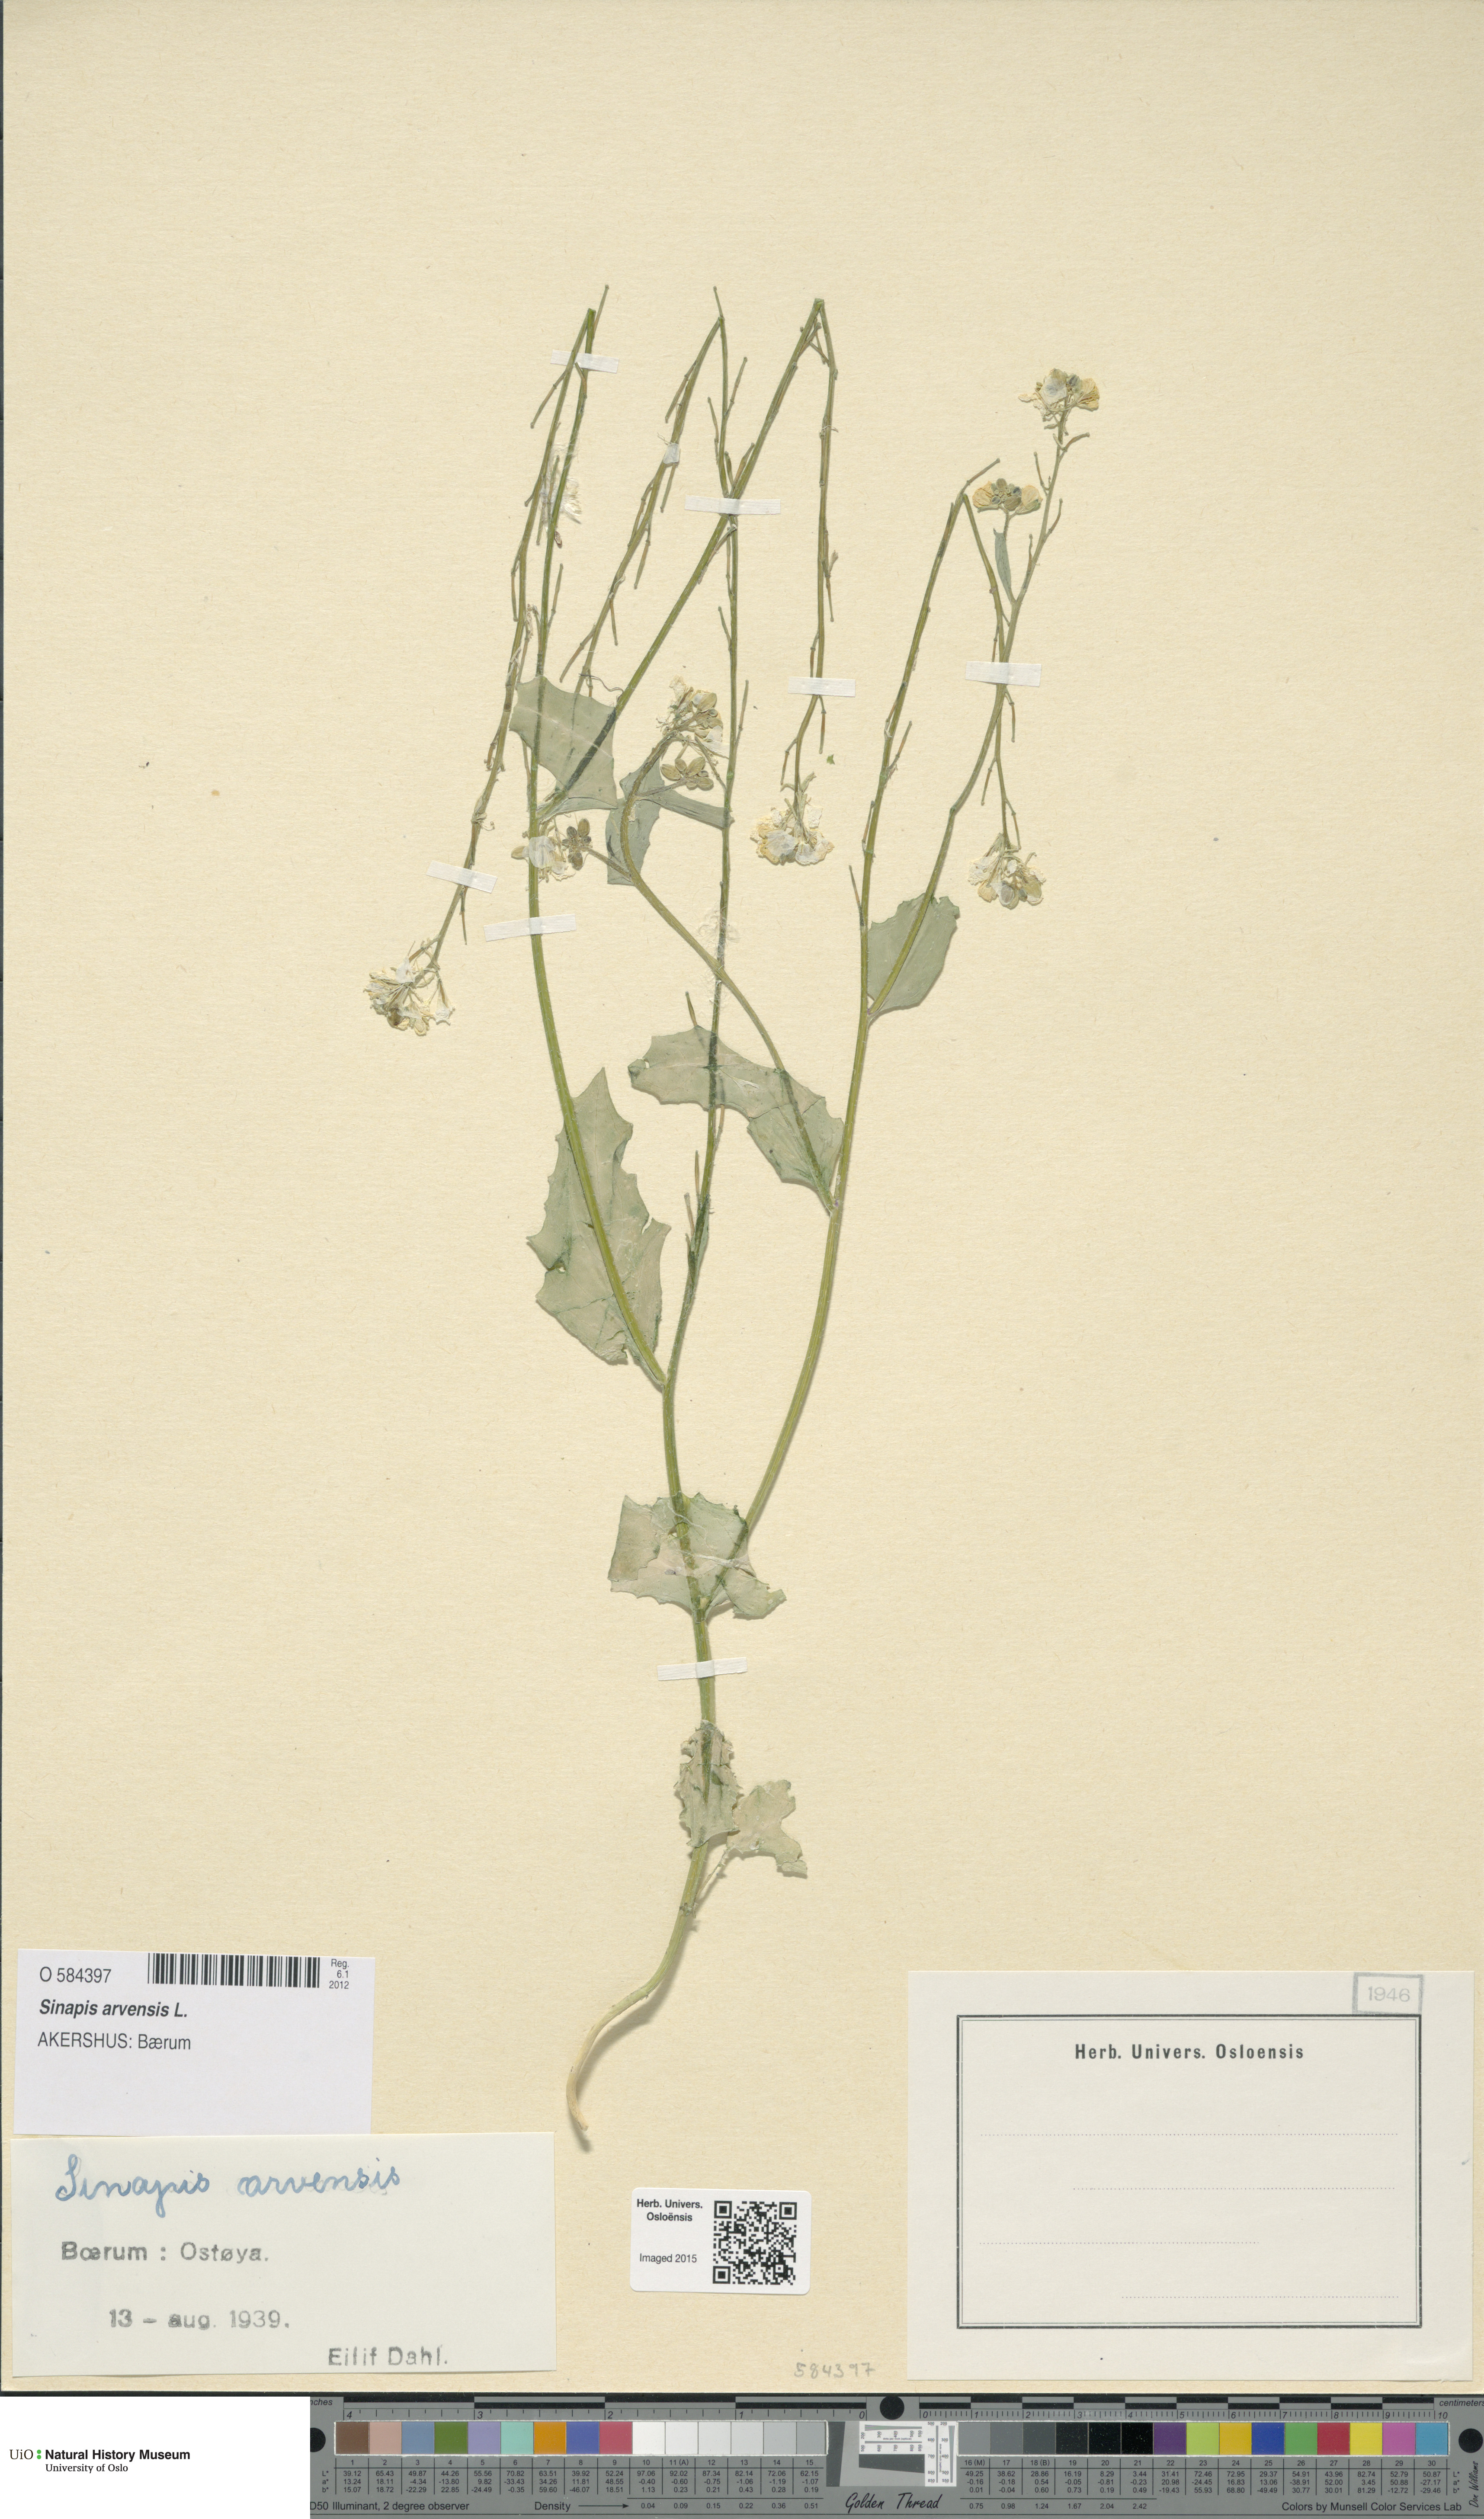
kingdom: Plantae
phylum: Tracheophyta
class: Magnoliopsida
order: Brassicales
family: Brassicaceae
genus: Sinapis
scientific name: Sinapis arvensis
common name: Charlock
